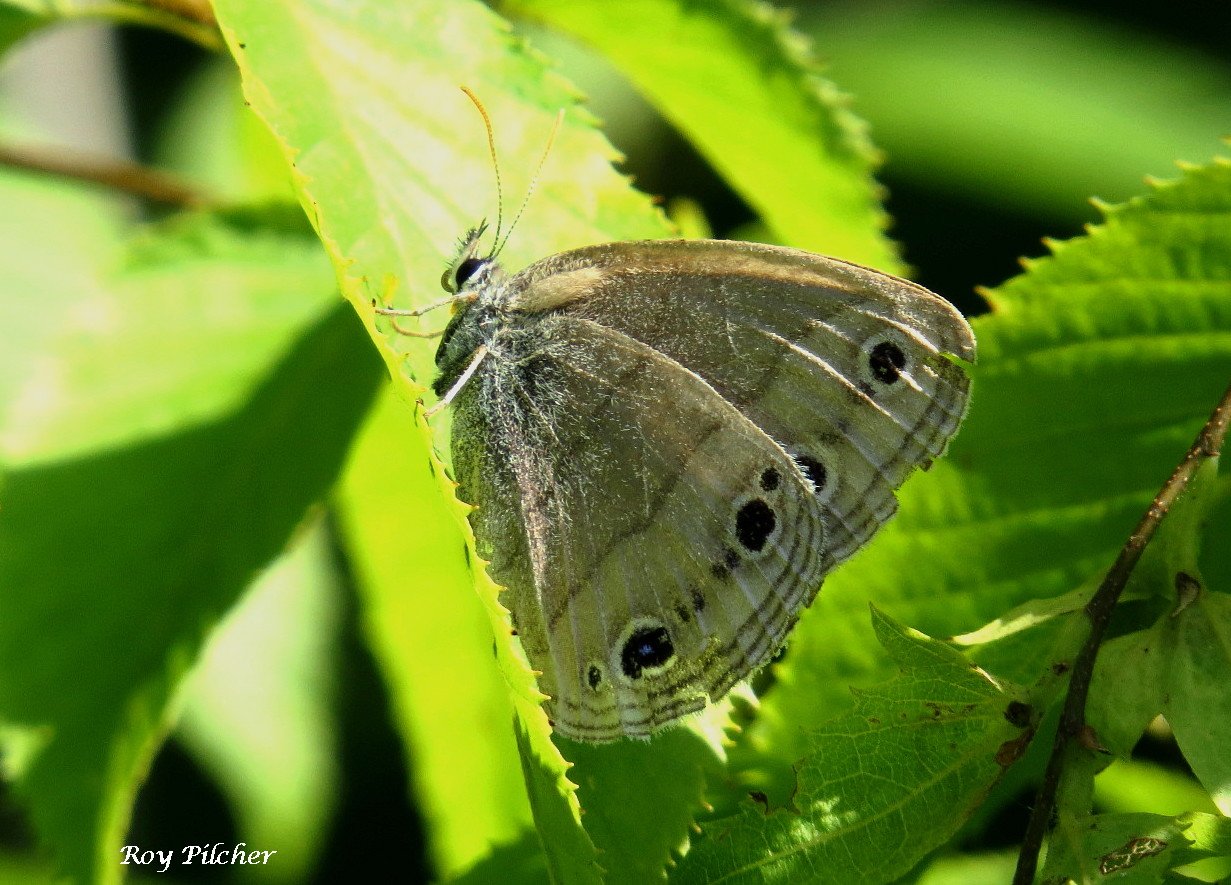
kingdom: Animalia
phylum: Arthropoda
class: Insecta
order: Lepidoptera
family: Nymphalidae
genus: Euptychia
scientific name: Euptychia cymela
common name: Little Wood Satyr
